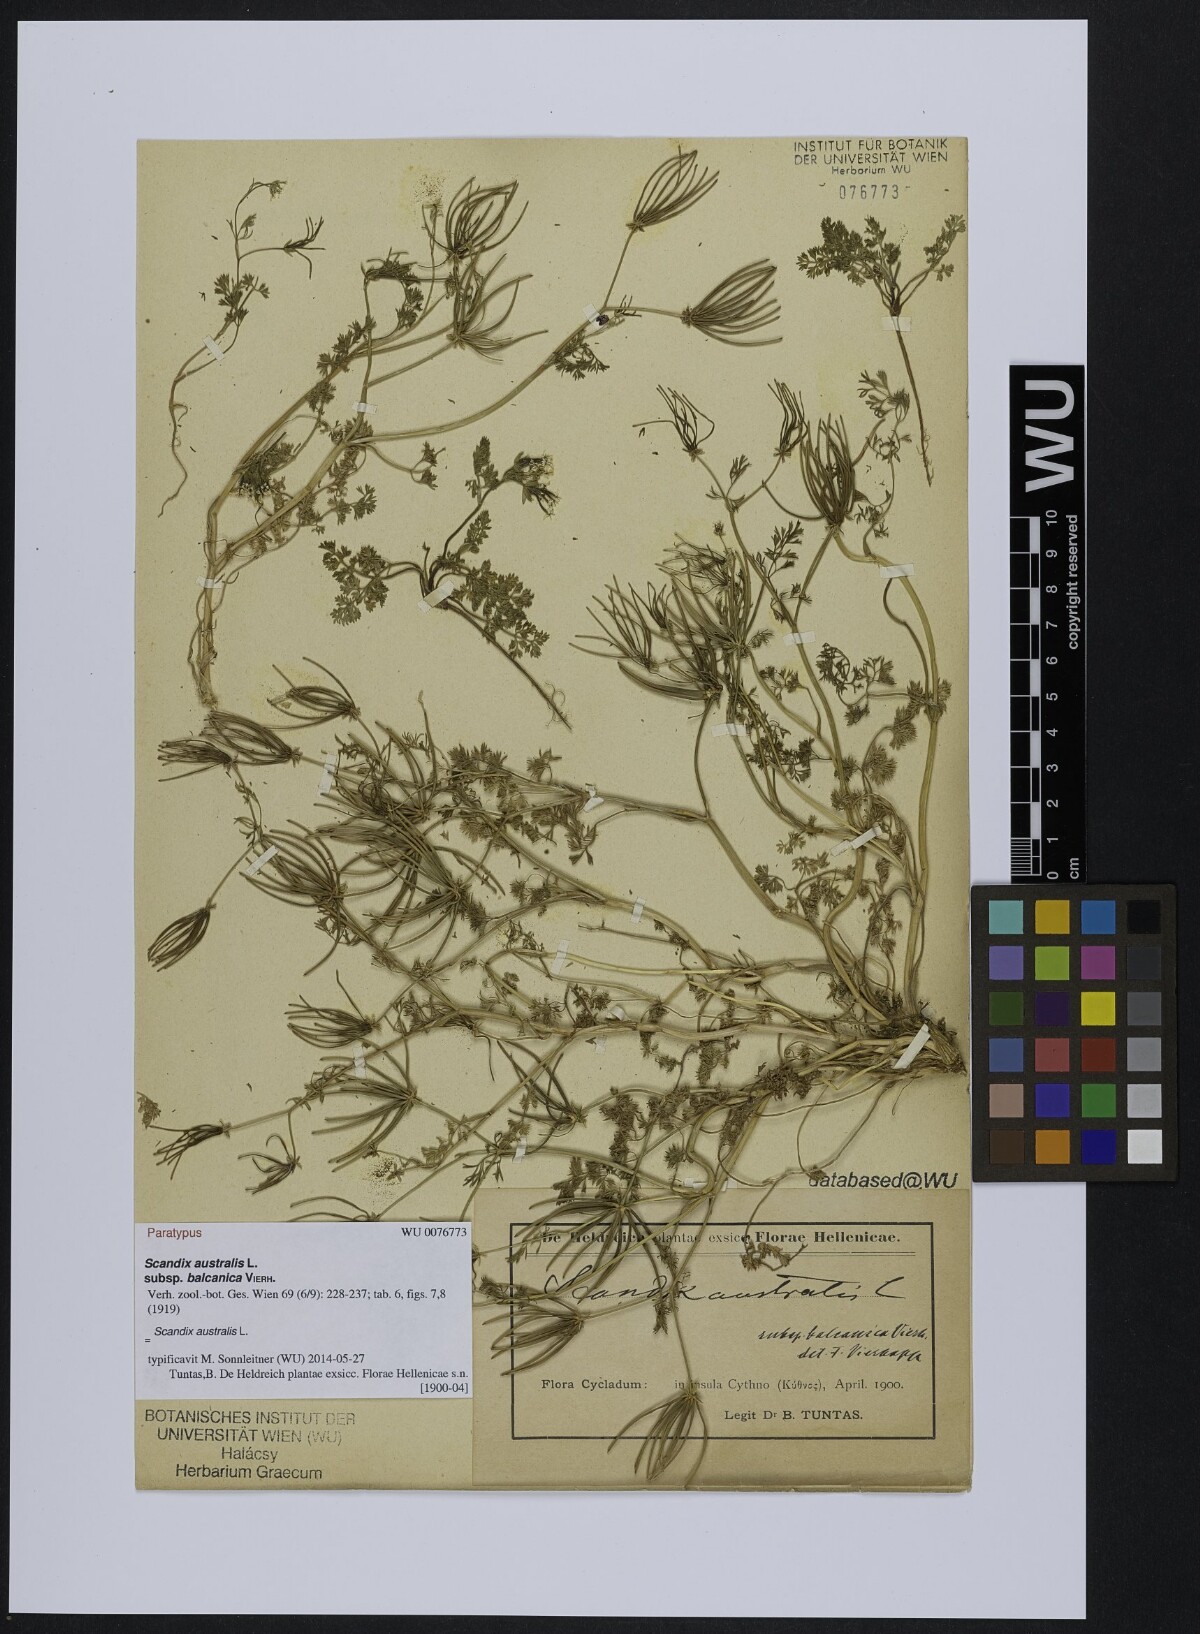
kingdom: Plantae
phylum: Tracheophyta
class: Magnoliopsida
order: Apiales
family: Apiaceae
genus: Scandix
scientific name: Scandix australis
